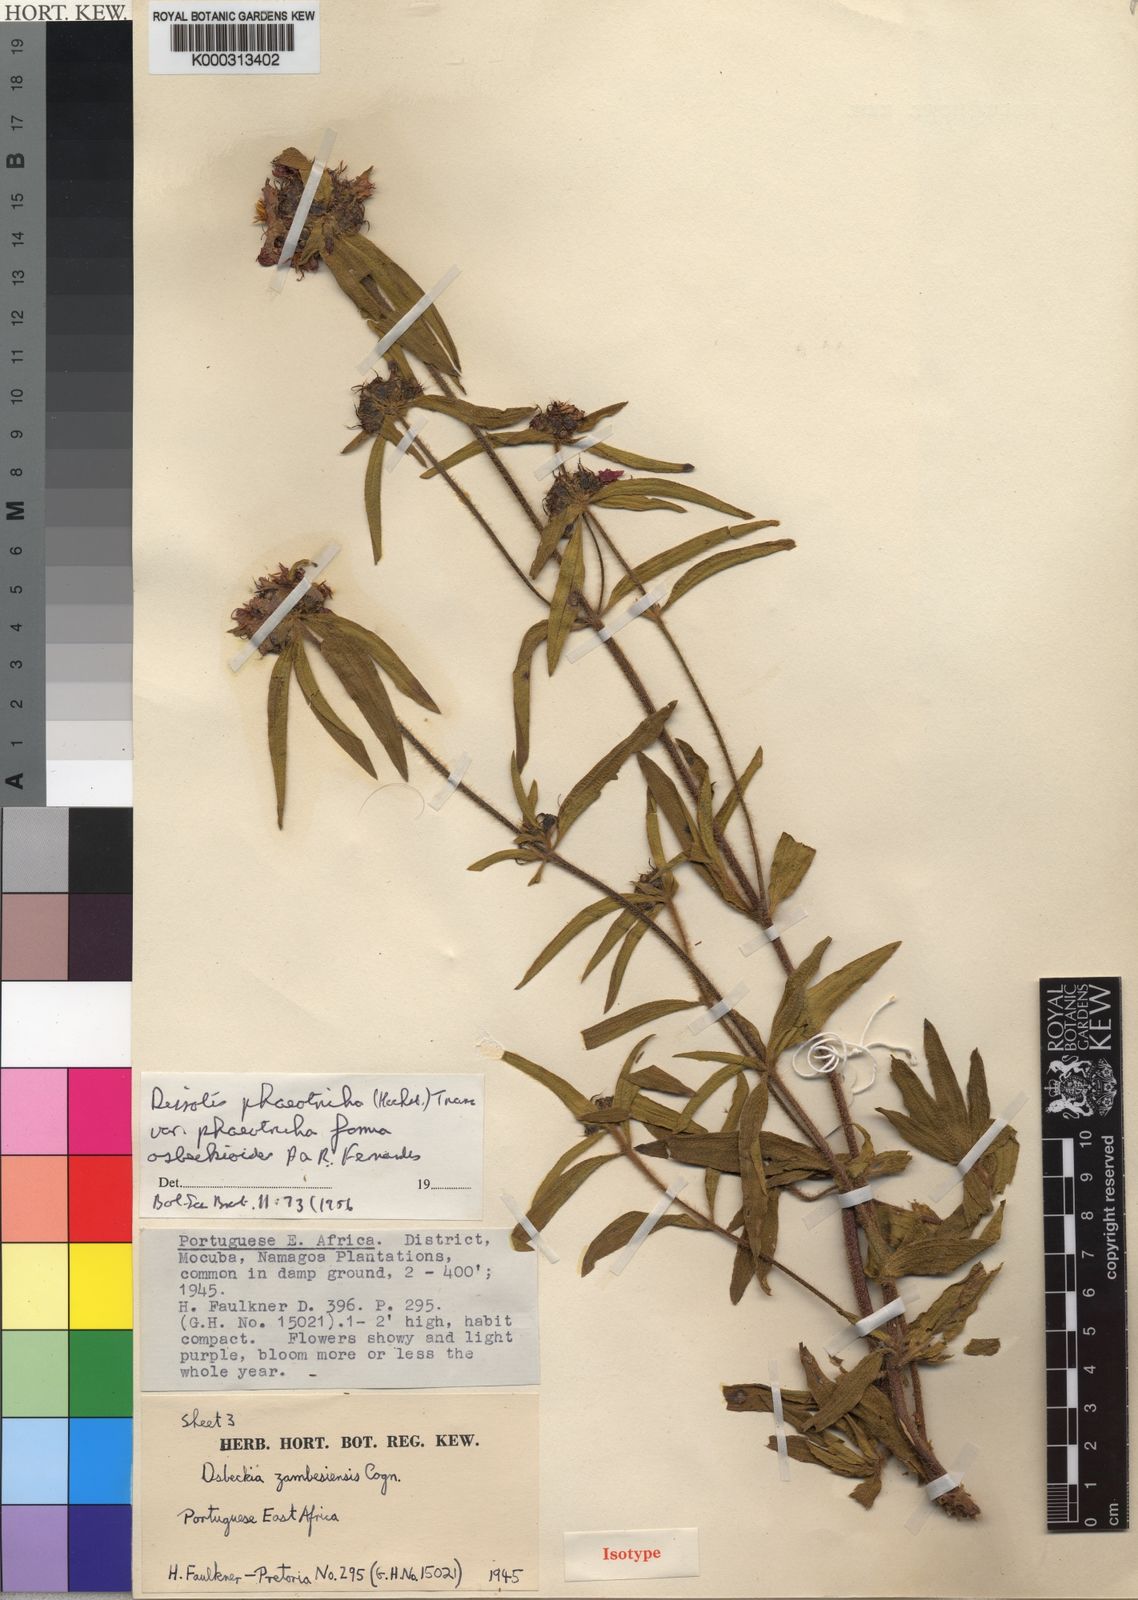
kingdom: Plantae
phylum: Tracheophyta
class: Magnoliopsida
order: Myrtales
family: Melastomataceae
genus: Antherotoma
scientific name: Antherotoma
